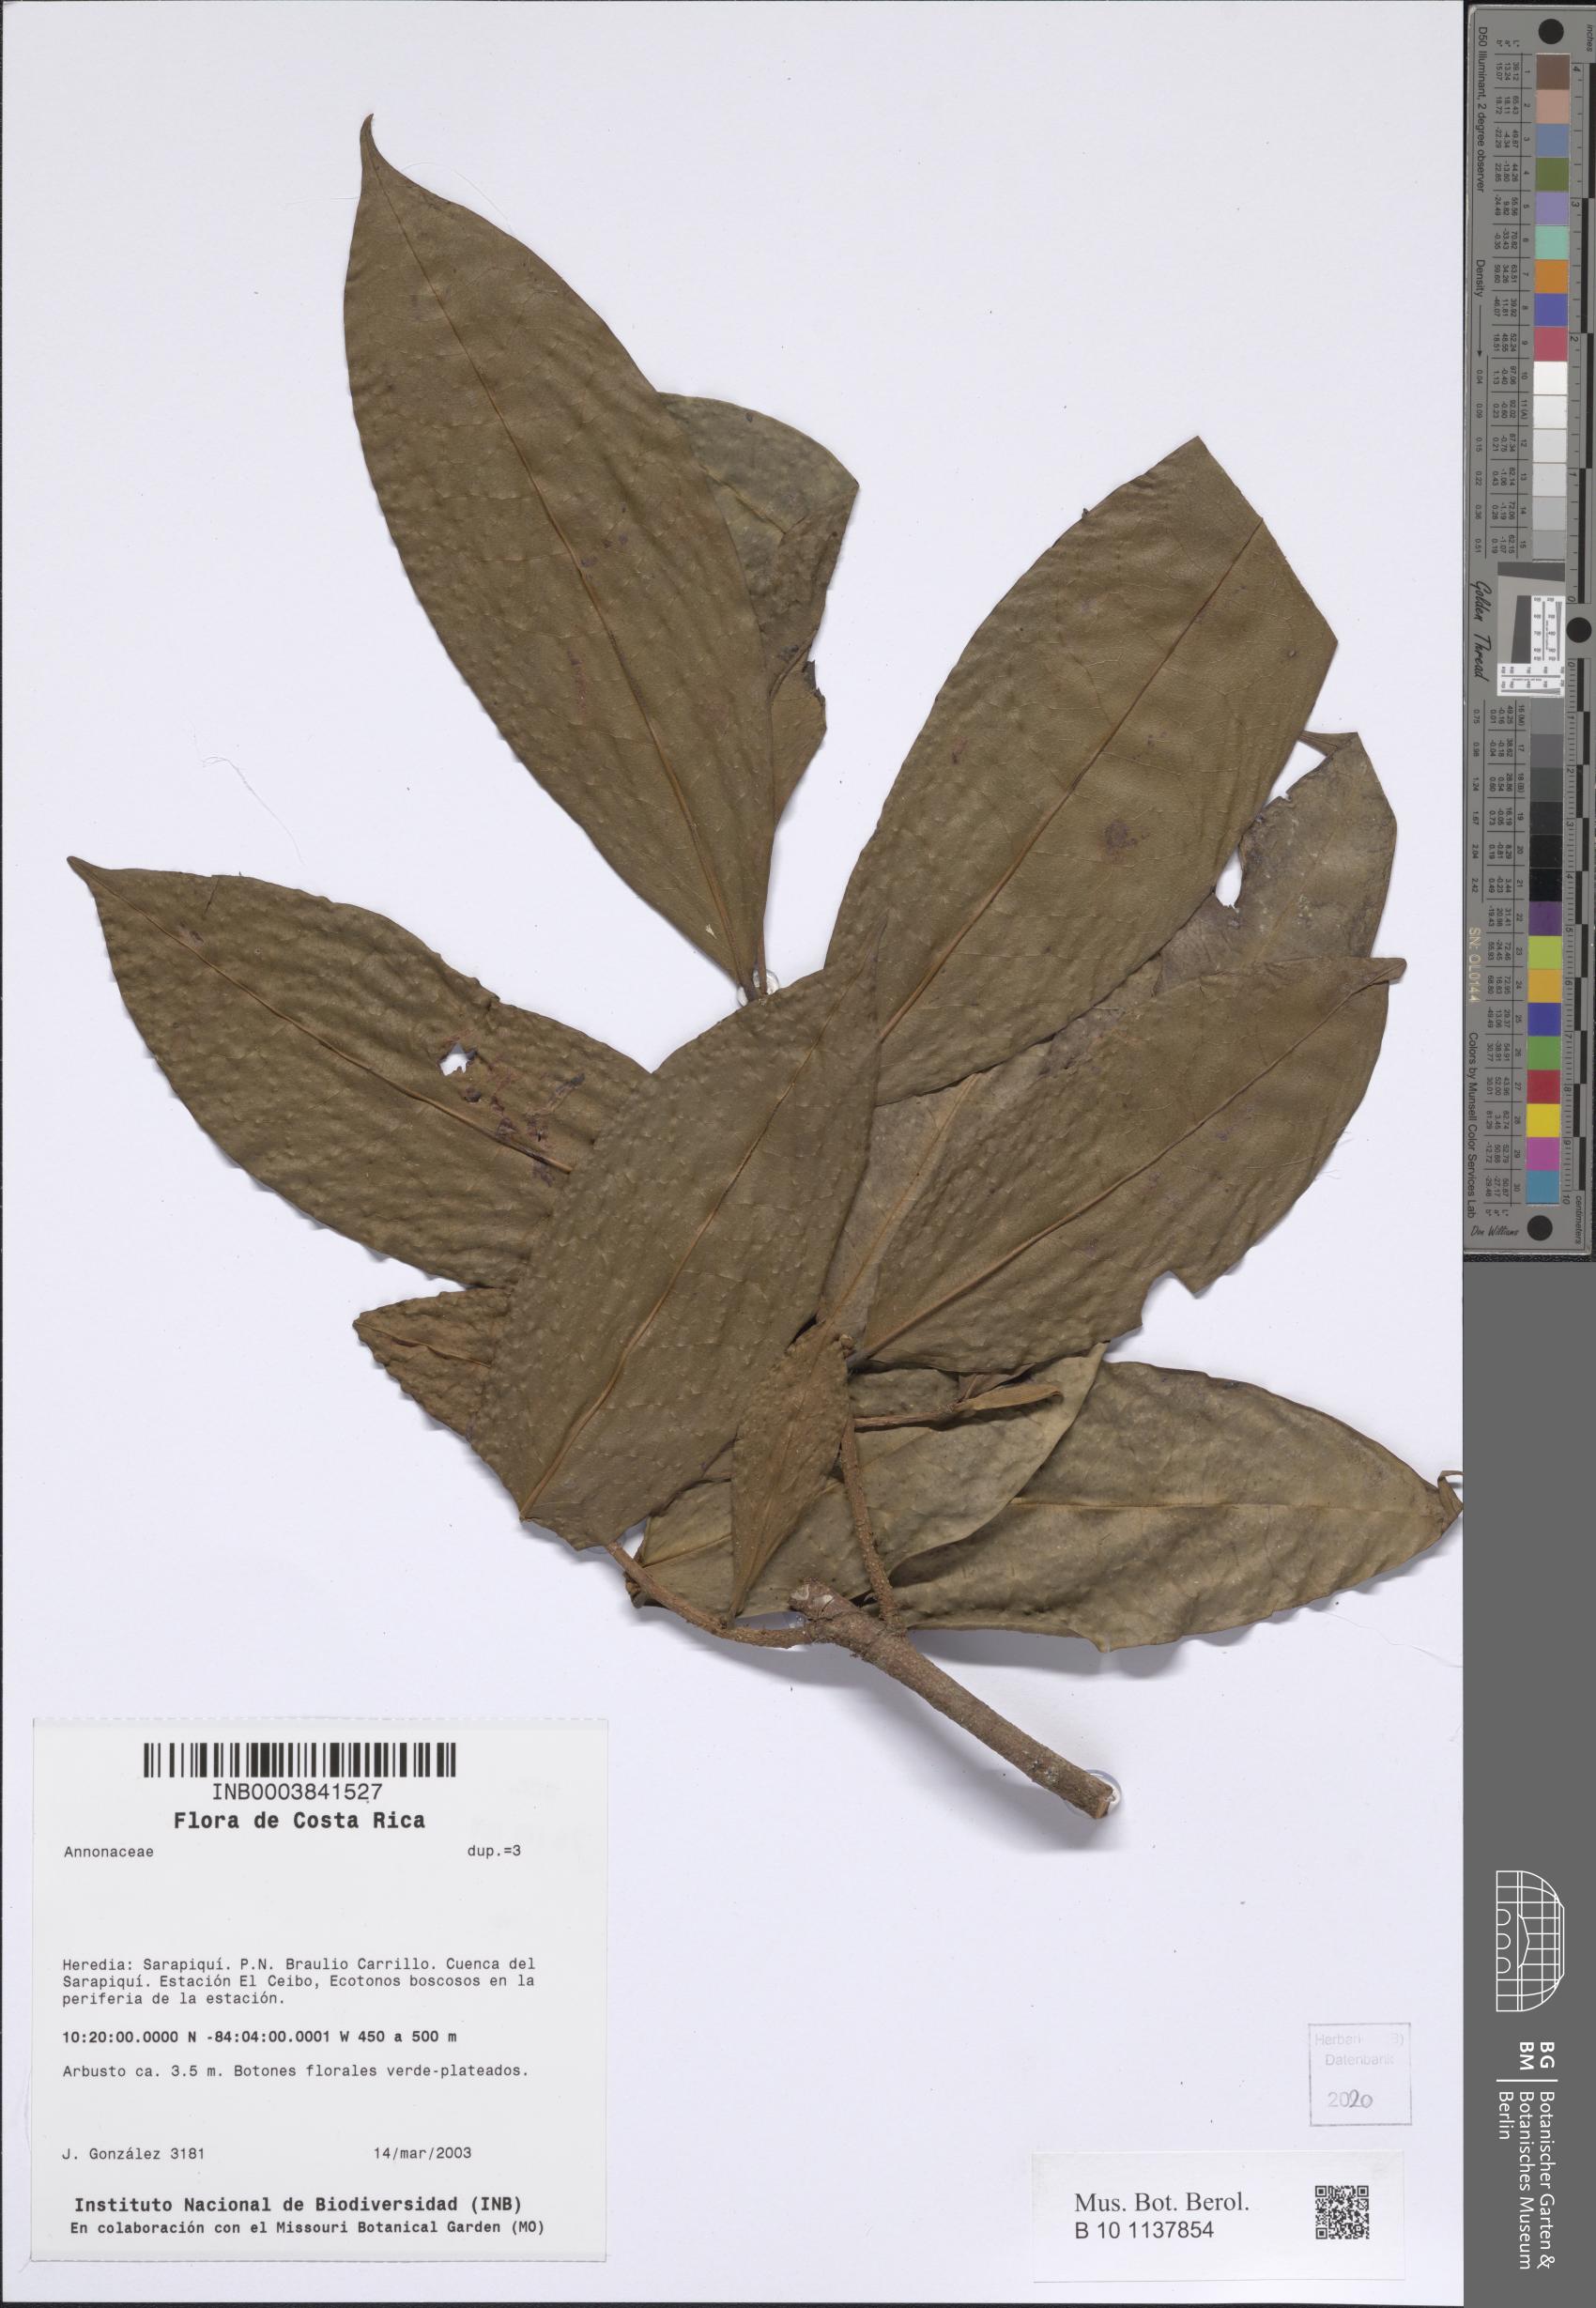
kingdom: Plantae
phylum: Tracheophyta
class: Magnoliopsida
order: Magnoliales
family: Annonaceae
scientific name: Annonaceae
